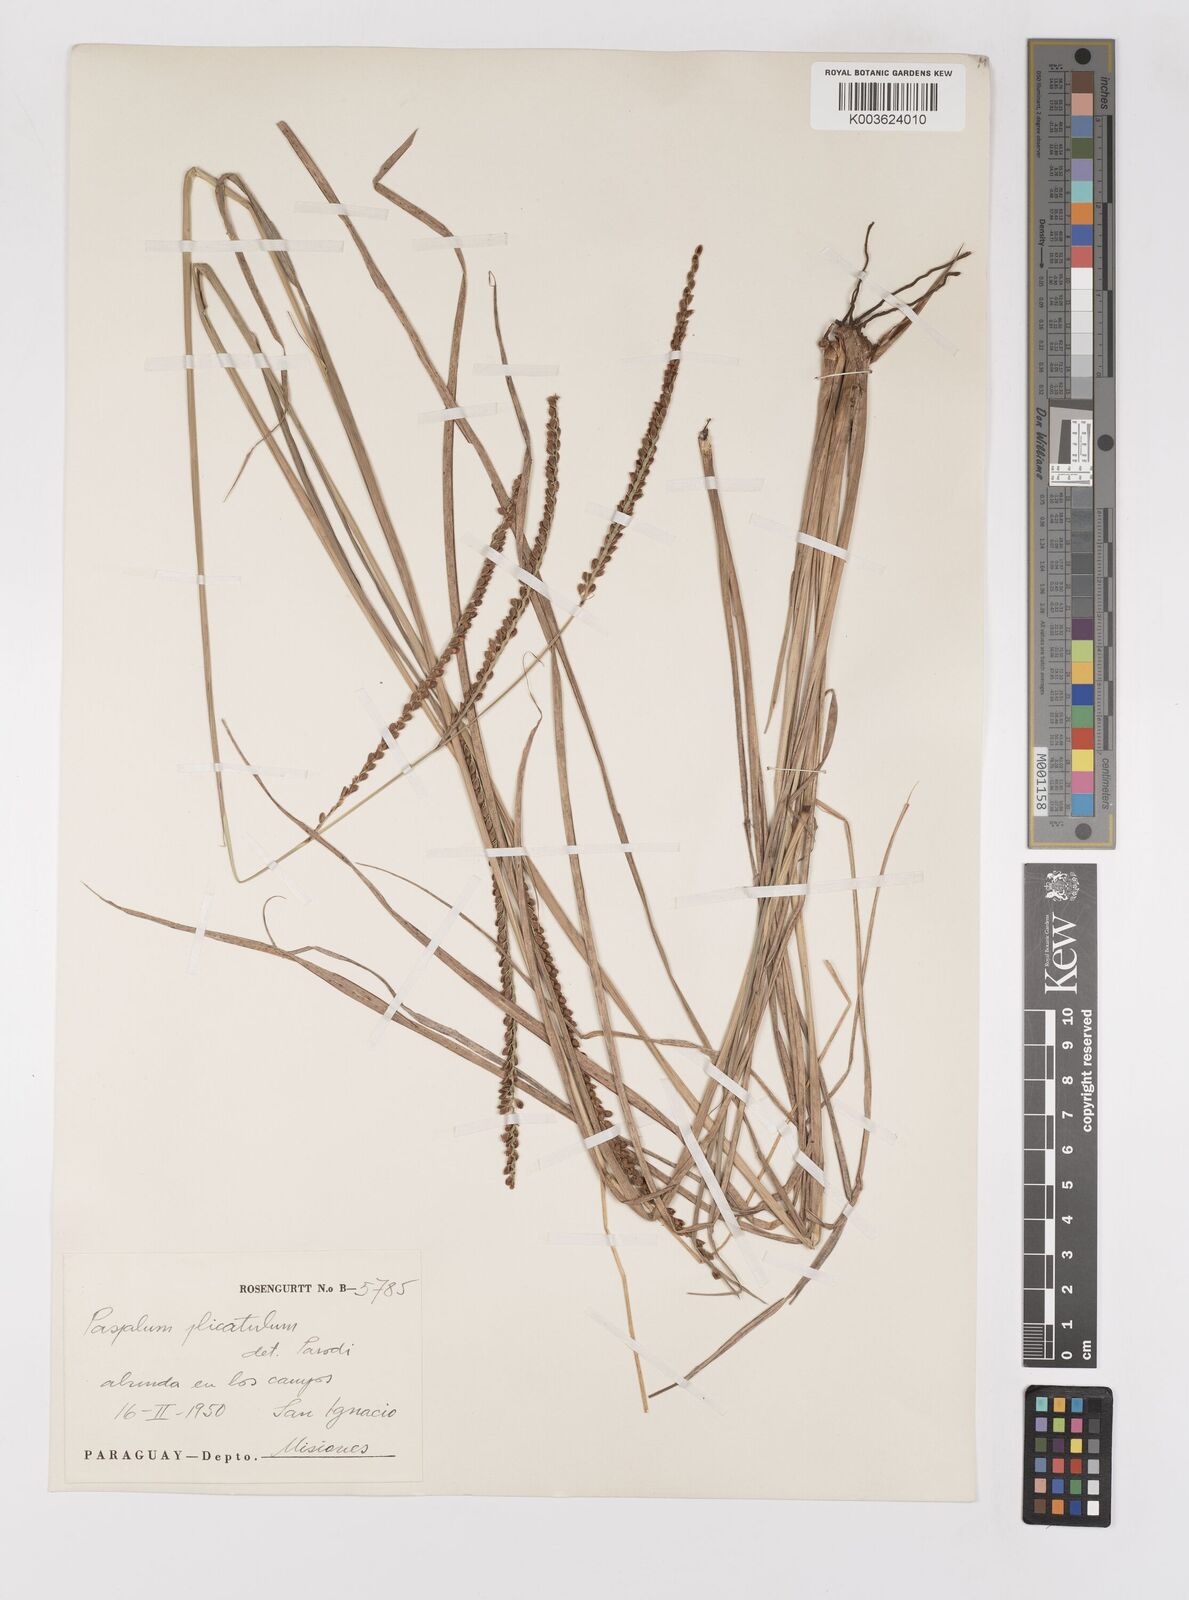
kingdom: Plantae
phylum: Tracheophyta
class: Liliopsida
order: Poales
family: Poaceae
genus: Paspalum
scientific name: Paspalum glaucescens
